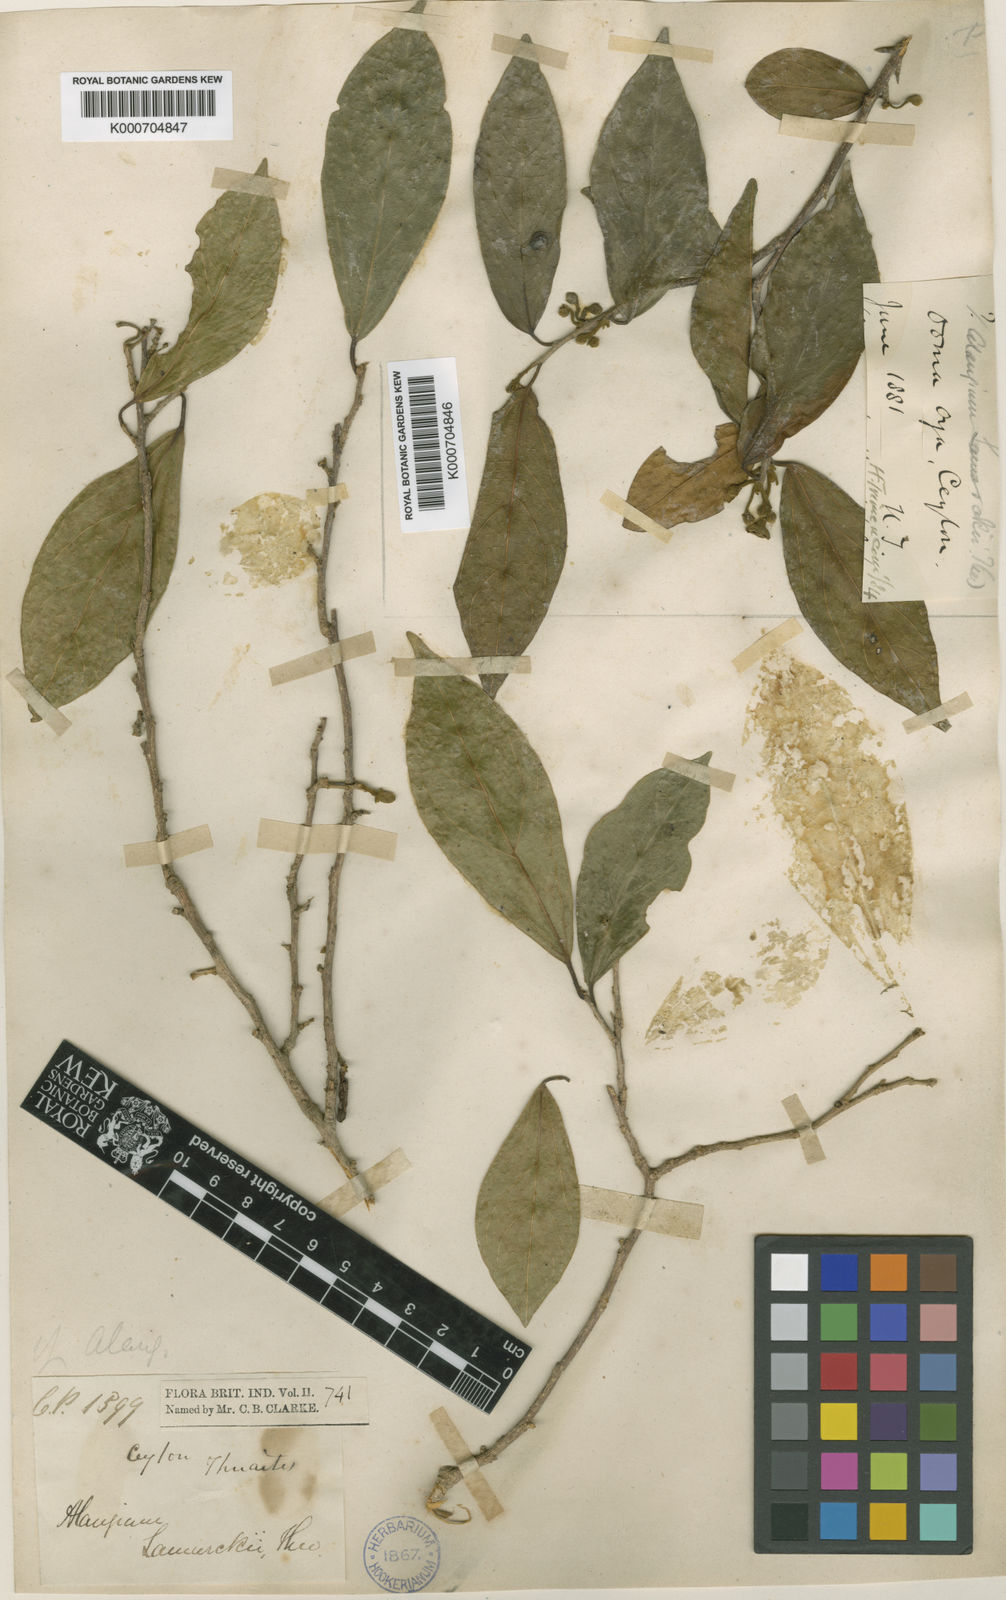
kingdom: Plantae
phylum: Tracheophyta
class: Magnoliopsida
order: Cornales
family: Cornaceae
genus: Alangium
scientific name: Alangium salviifolium
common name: Sage-leaf alangium
